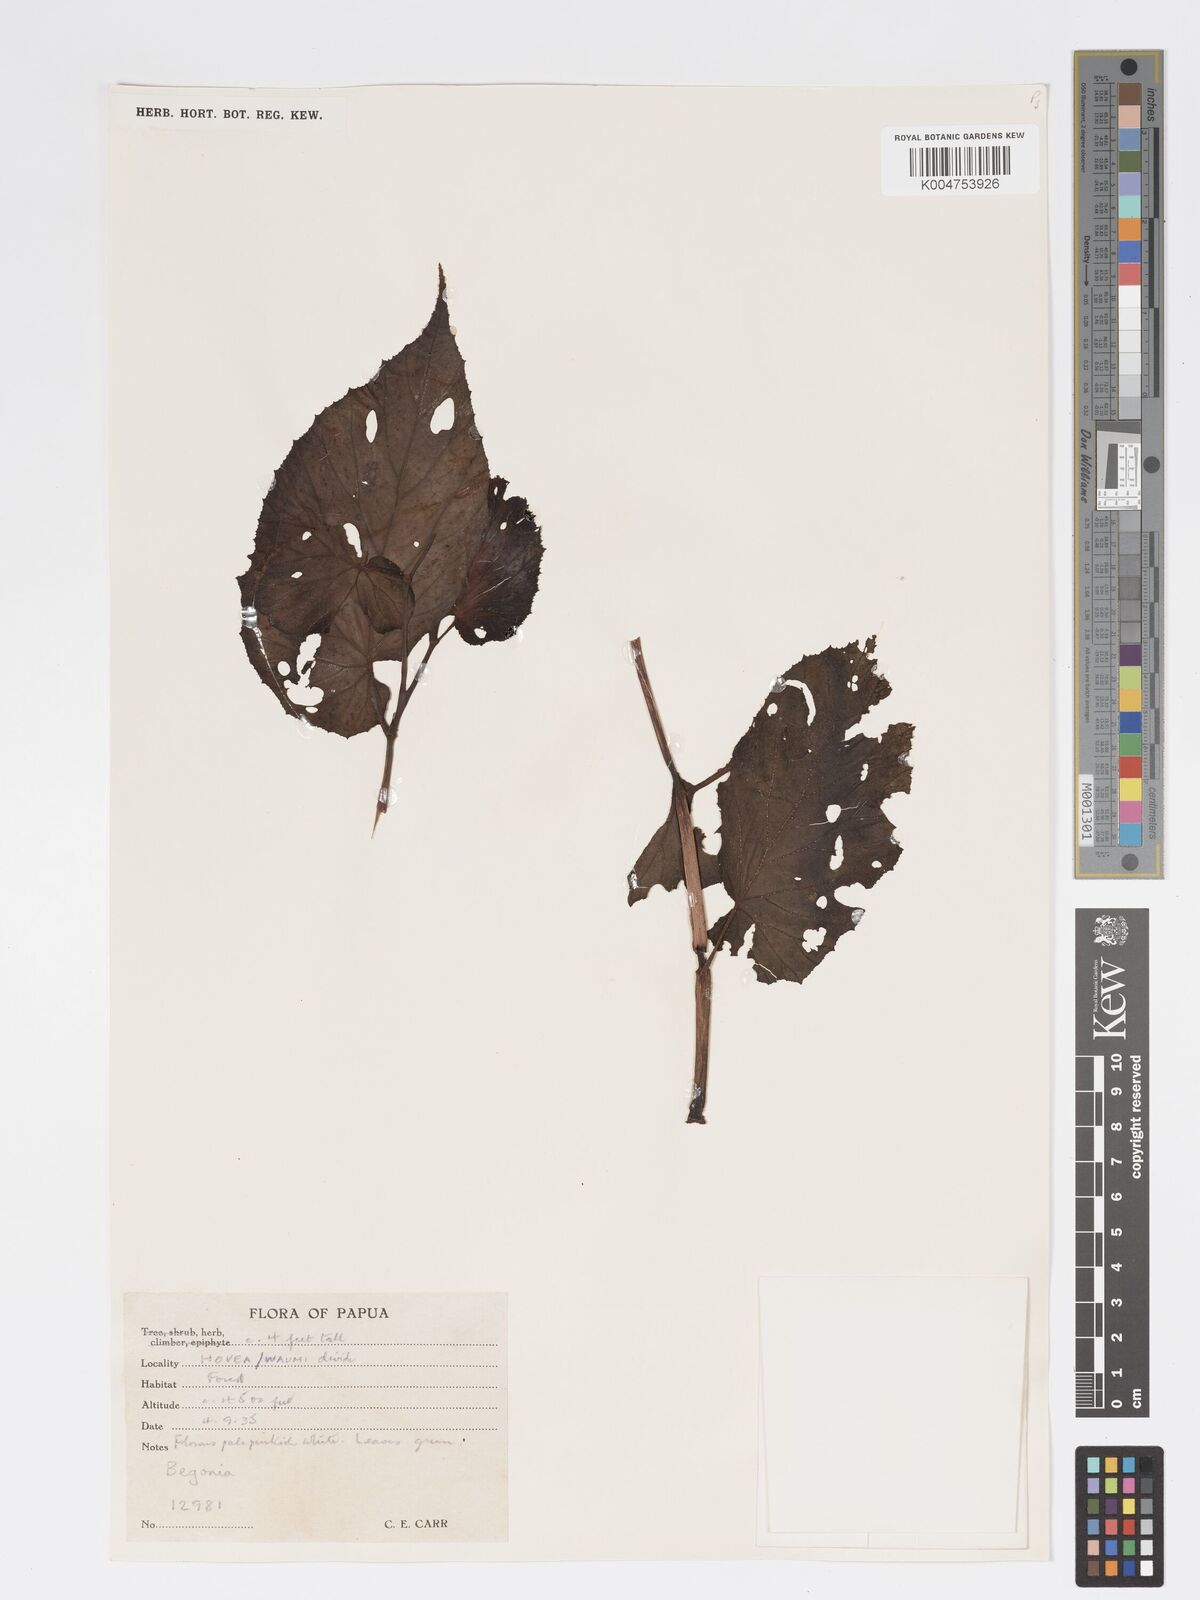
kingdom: Plantae
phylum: Tracheophyta
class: Magnoliopsida
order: Cucurbitales
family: Begoniaceae
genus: Begonia
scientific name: Begonia wollastonii
